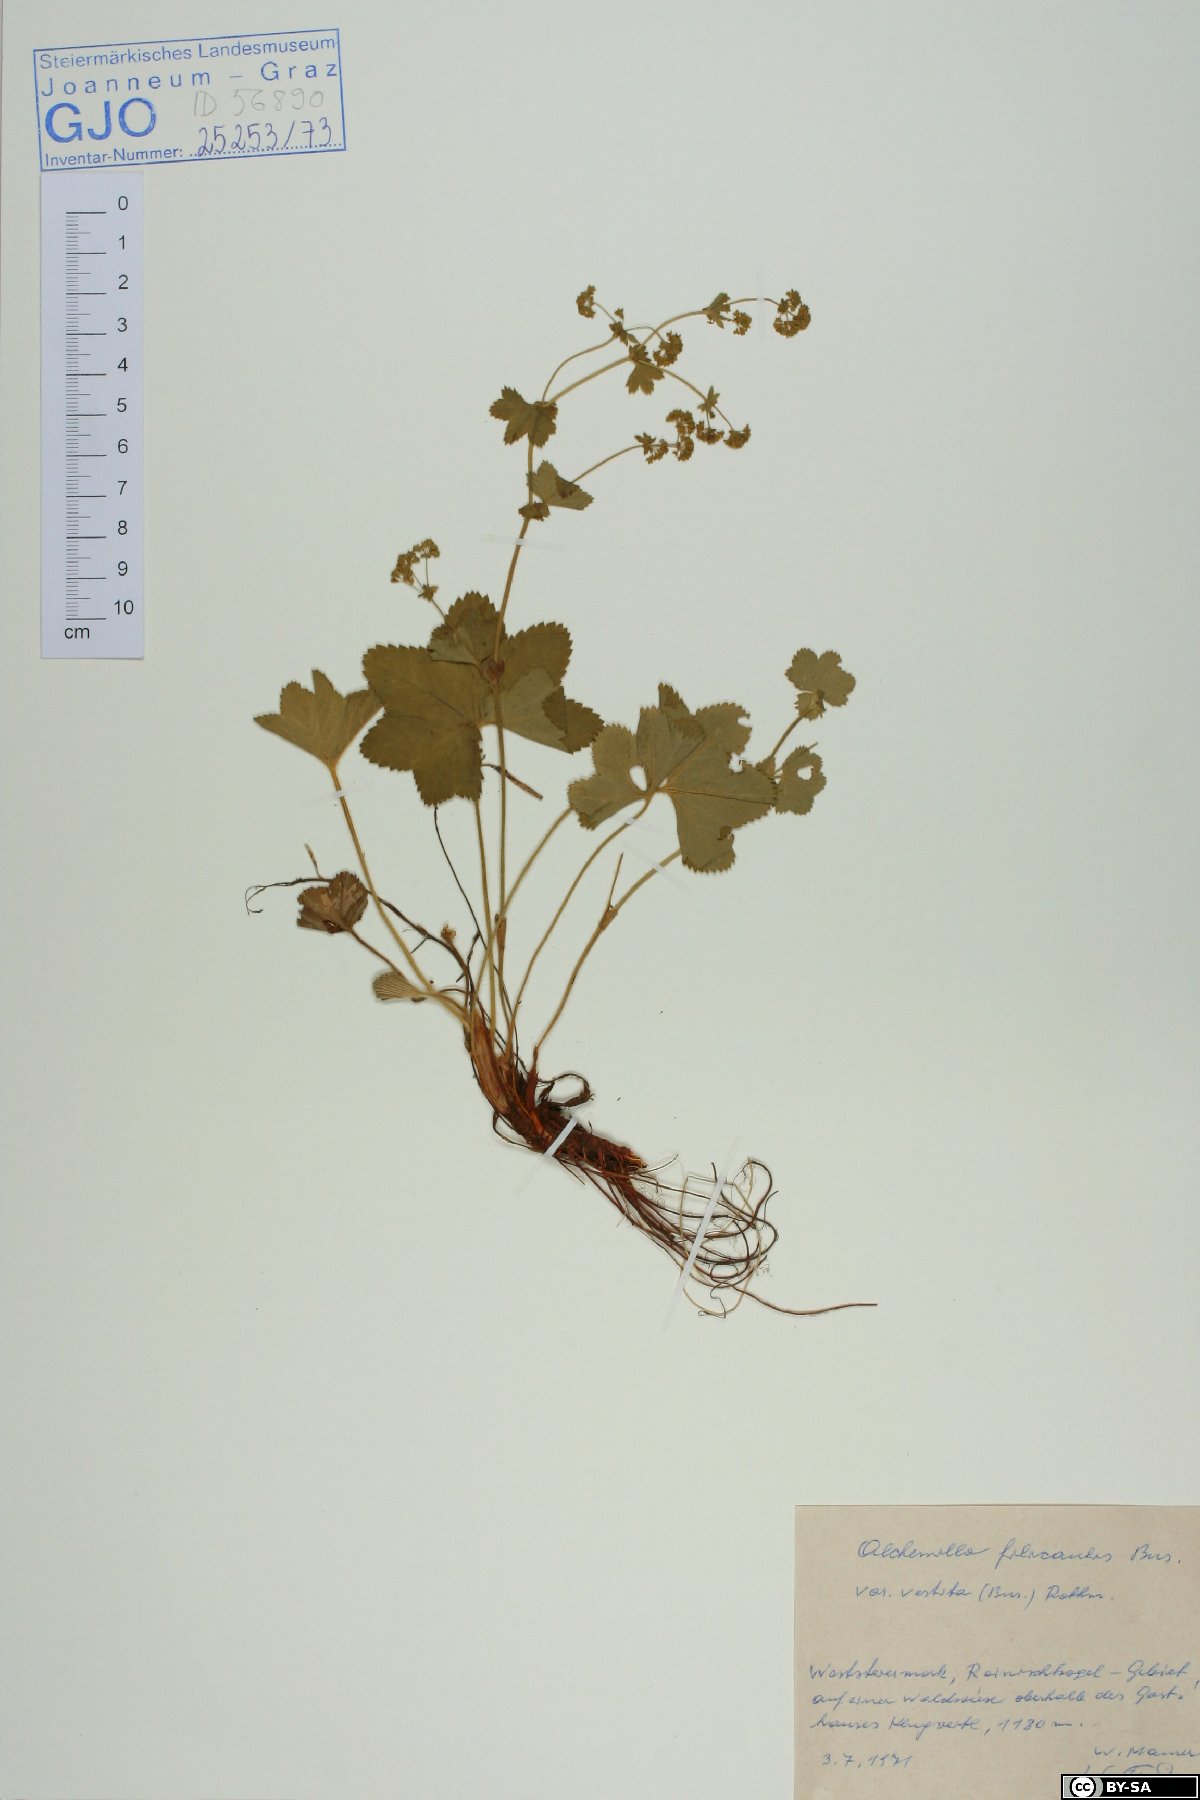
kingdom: Plantae
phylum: Tracheophyta
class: Magnoliopsida
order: Rosales
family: Rosaceae
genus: Alchemilla
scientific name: Alchemilla filicaulis
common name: Hairy lady's-mantle
